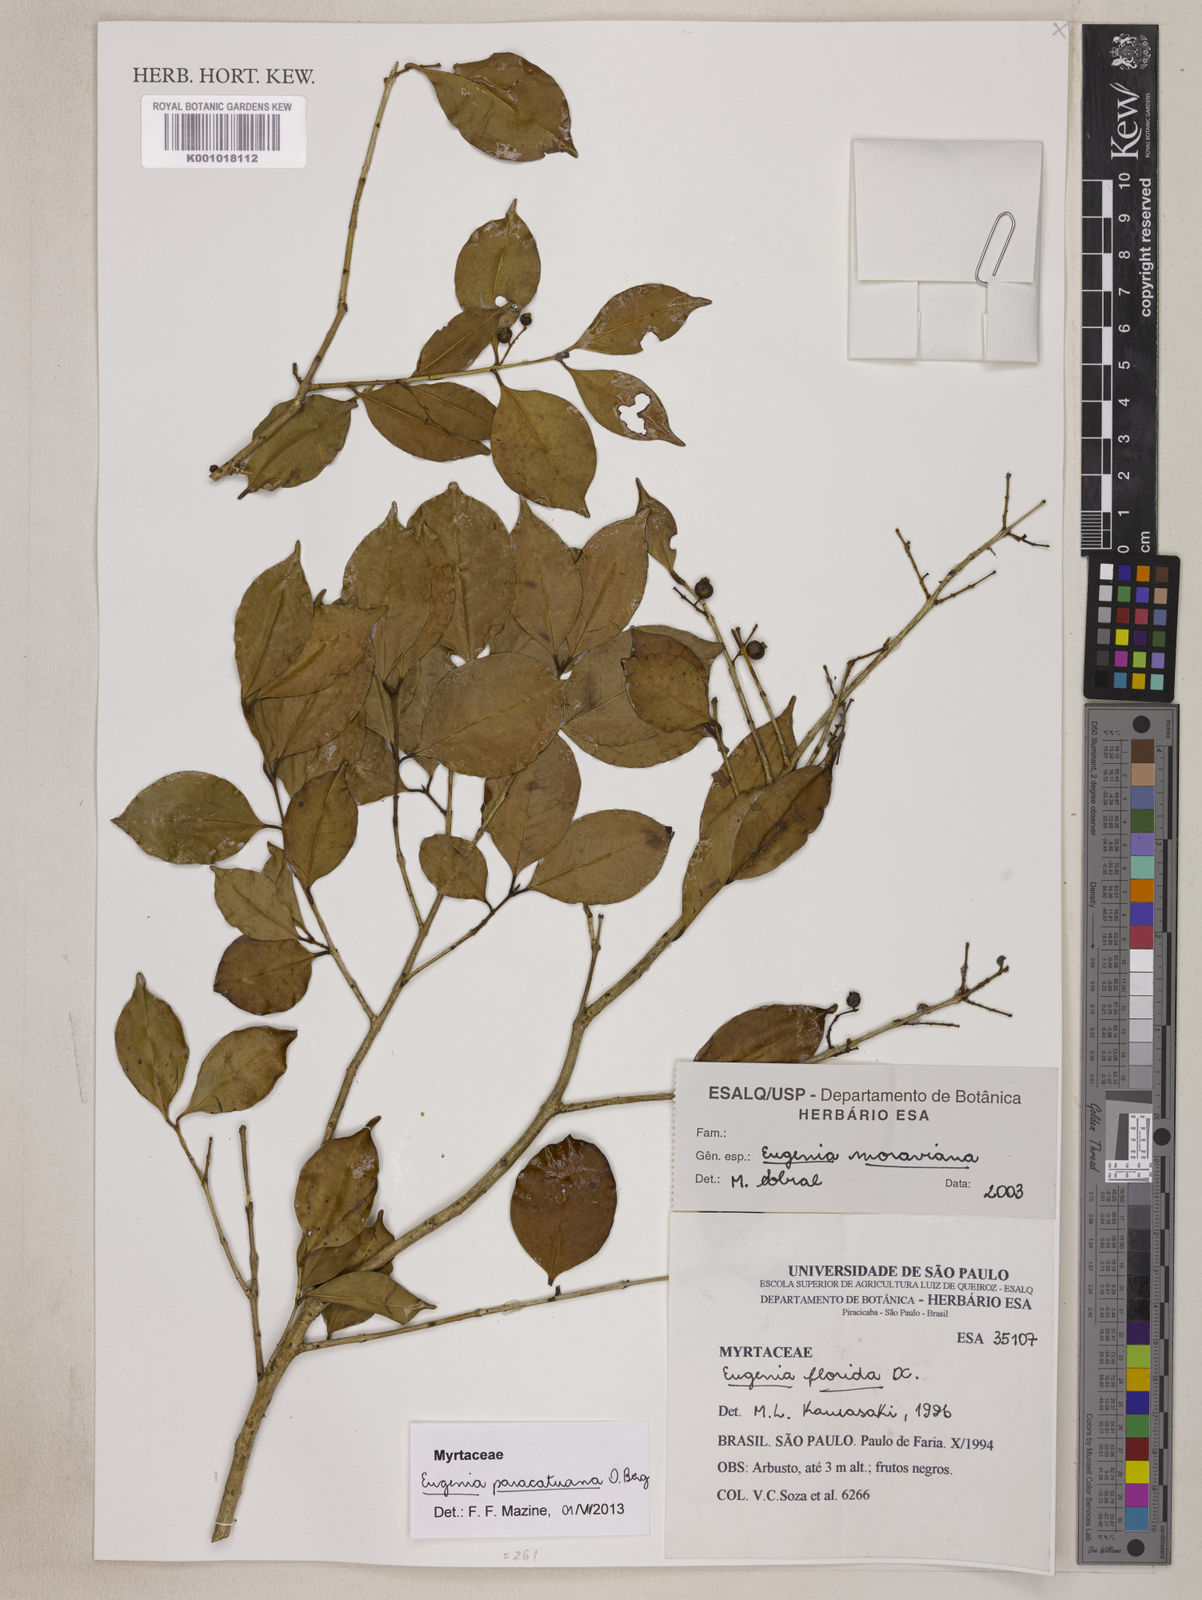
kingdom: Plantae
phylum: Tracheophyta
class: Magnoliopsida
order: Myrtales
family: Myrtaceae
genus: Eugenia
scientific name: Eugenia moraviana
